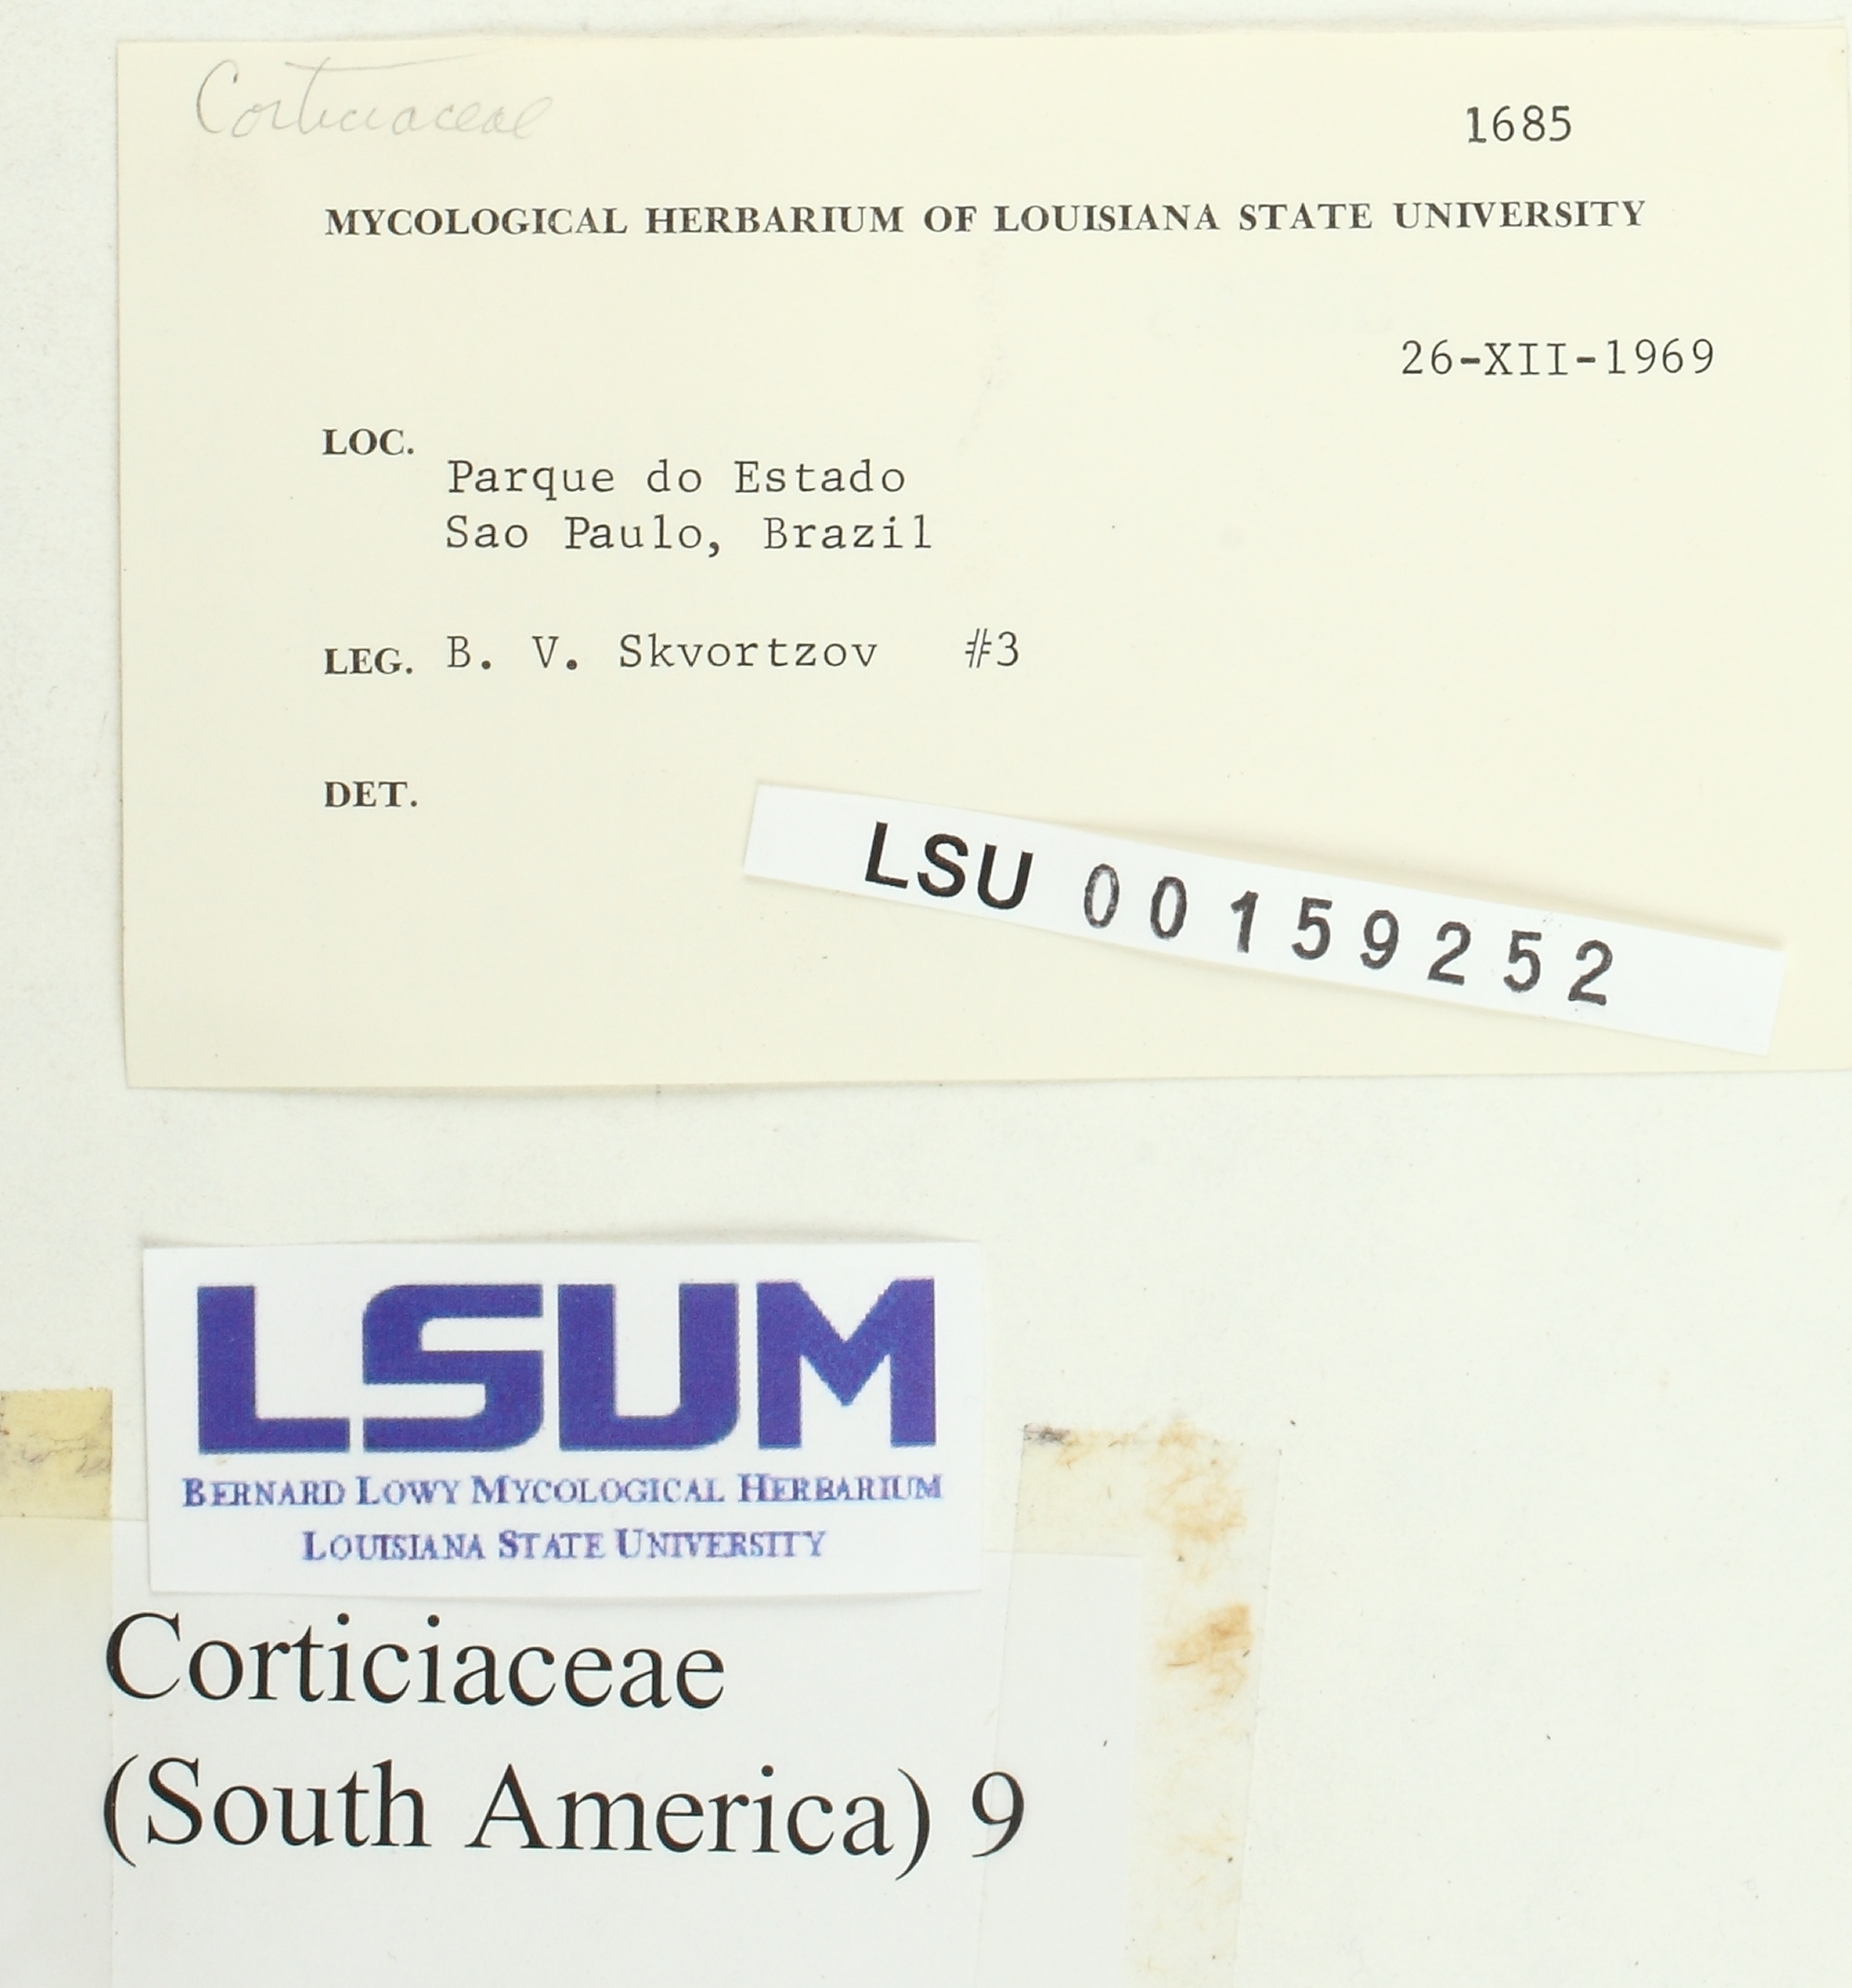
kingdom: Fungi
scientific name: Fungi
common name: Fungi
